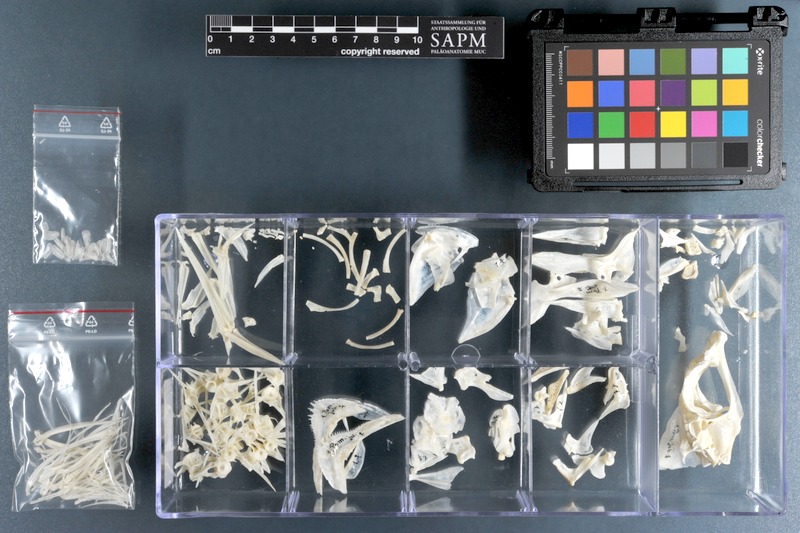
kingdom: Animalia
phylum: Chordata
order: Perciformes
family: Haemulidae
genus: Pomadasys
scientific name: Pomadasys jubelini
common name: Sompat grunt
